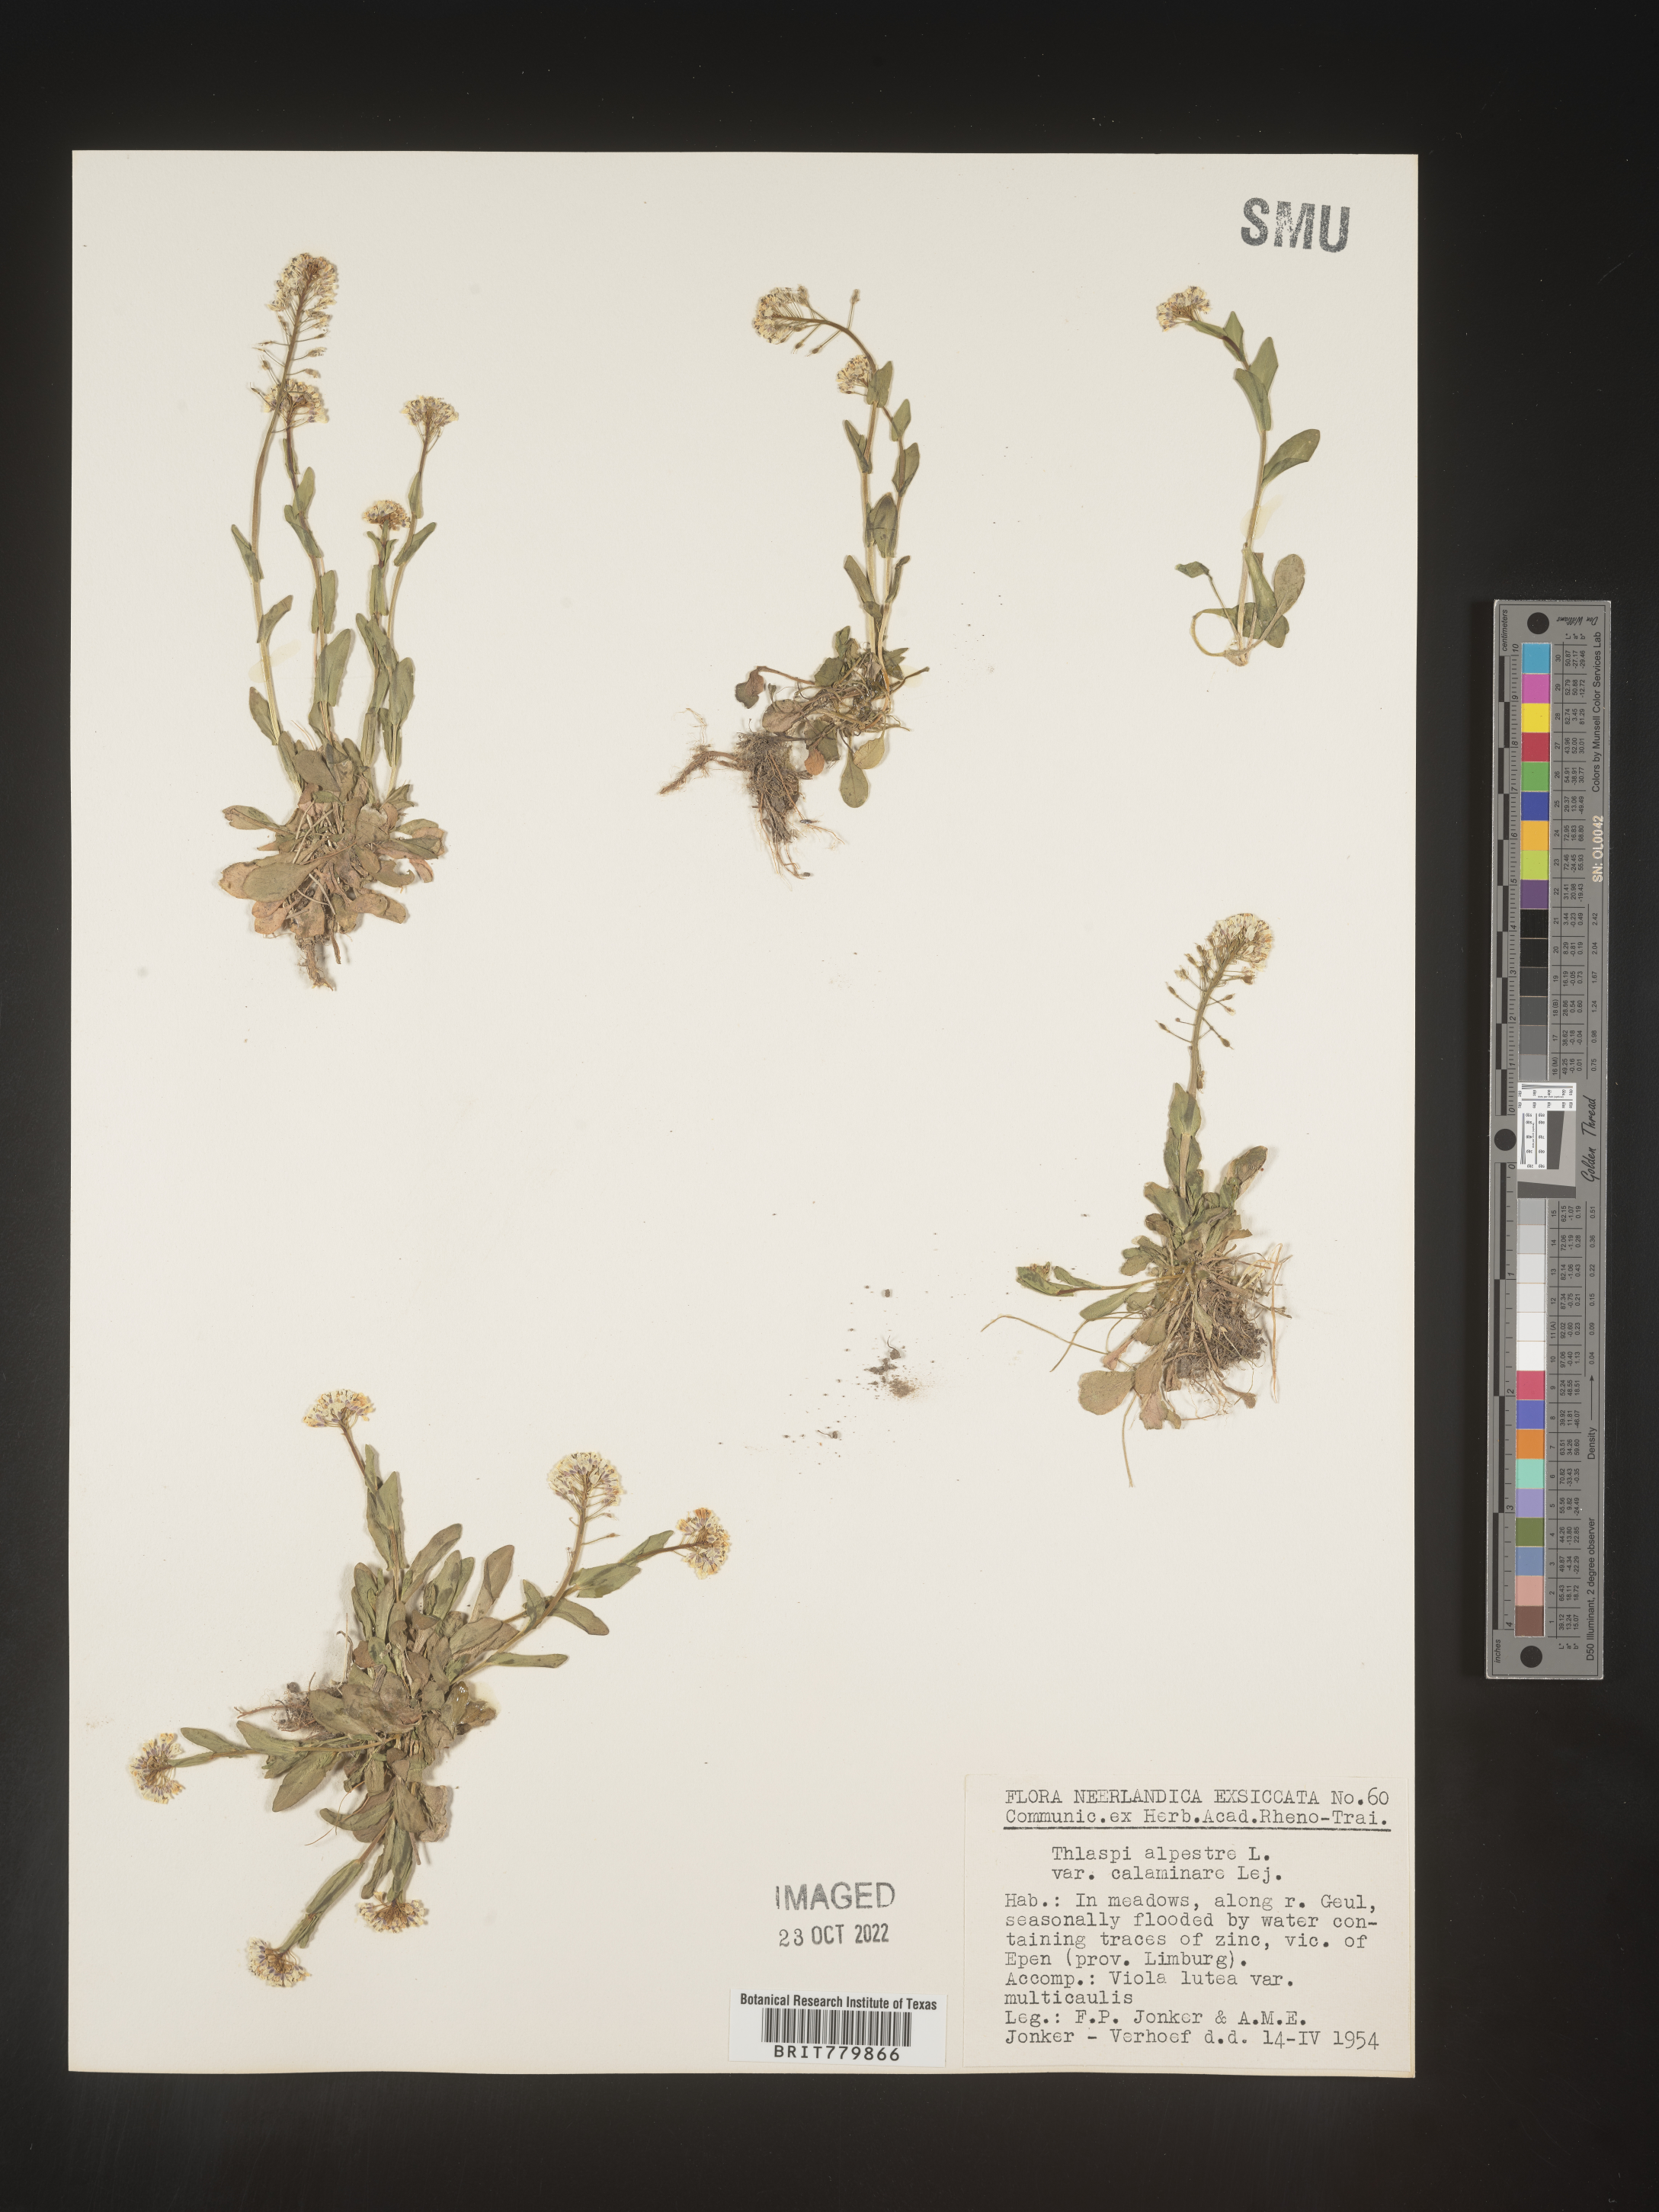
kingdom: Plantae
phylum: Tracheophyta
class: Magnoliopsida
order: Brassicales
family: Brassicaceae
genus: Thlaspi
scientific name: Thlaspi
